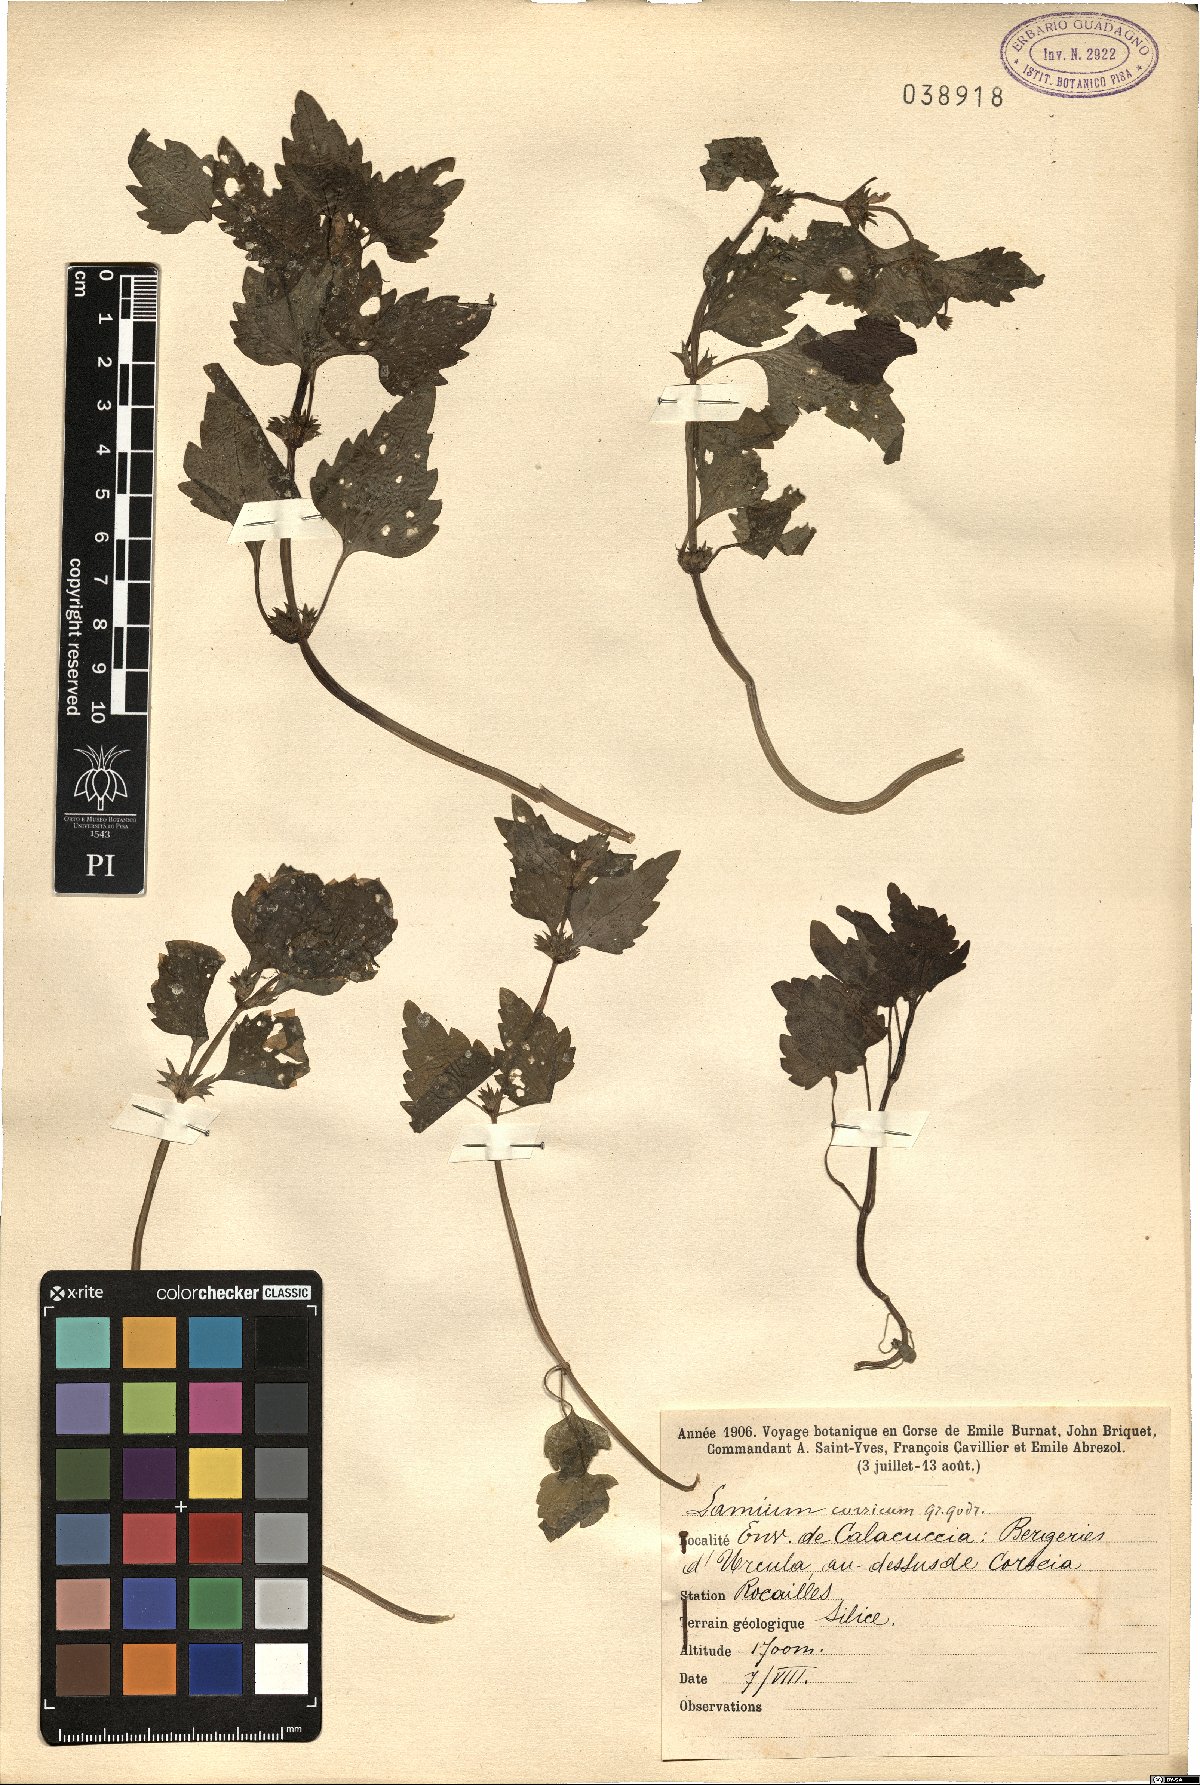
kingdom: Plantae
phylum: Tracheophyta
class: Magnoliopsida
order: Lamiales
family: Lamiaceae
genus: Lamium
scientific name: Lamium garganicum
